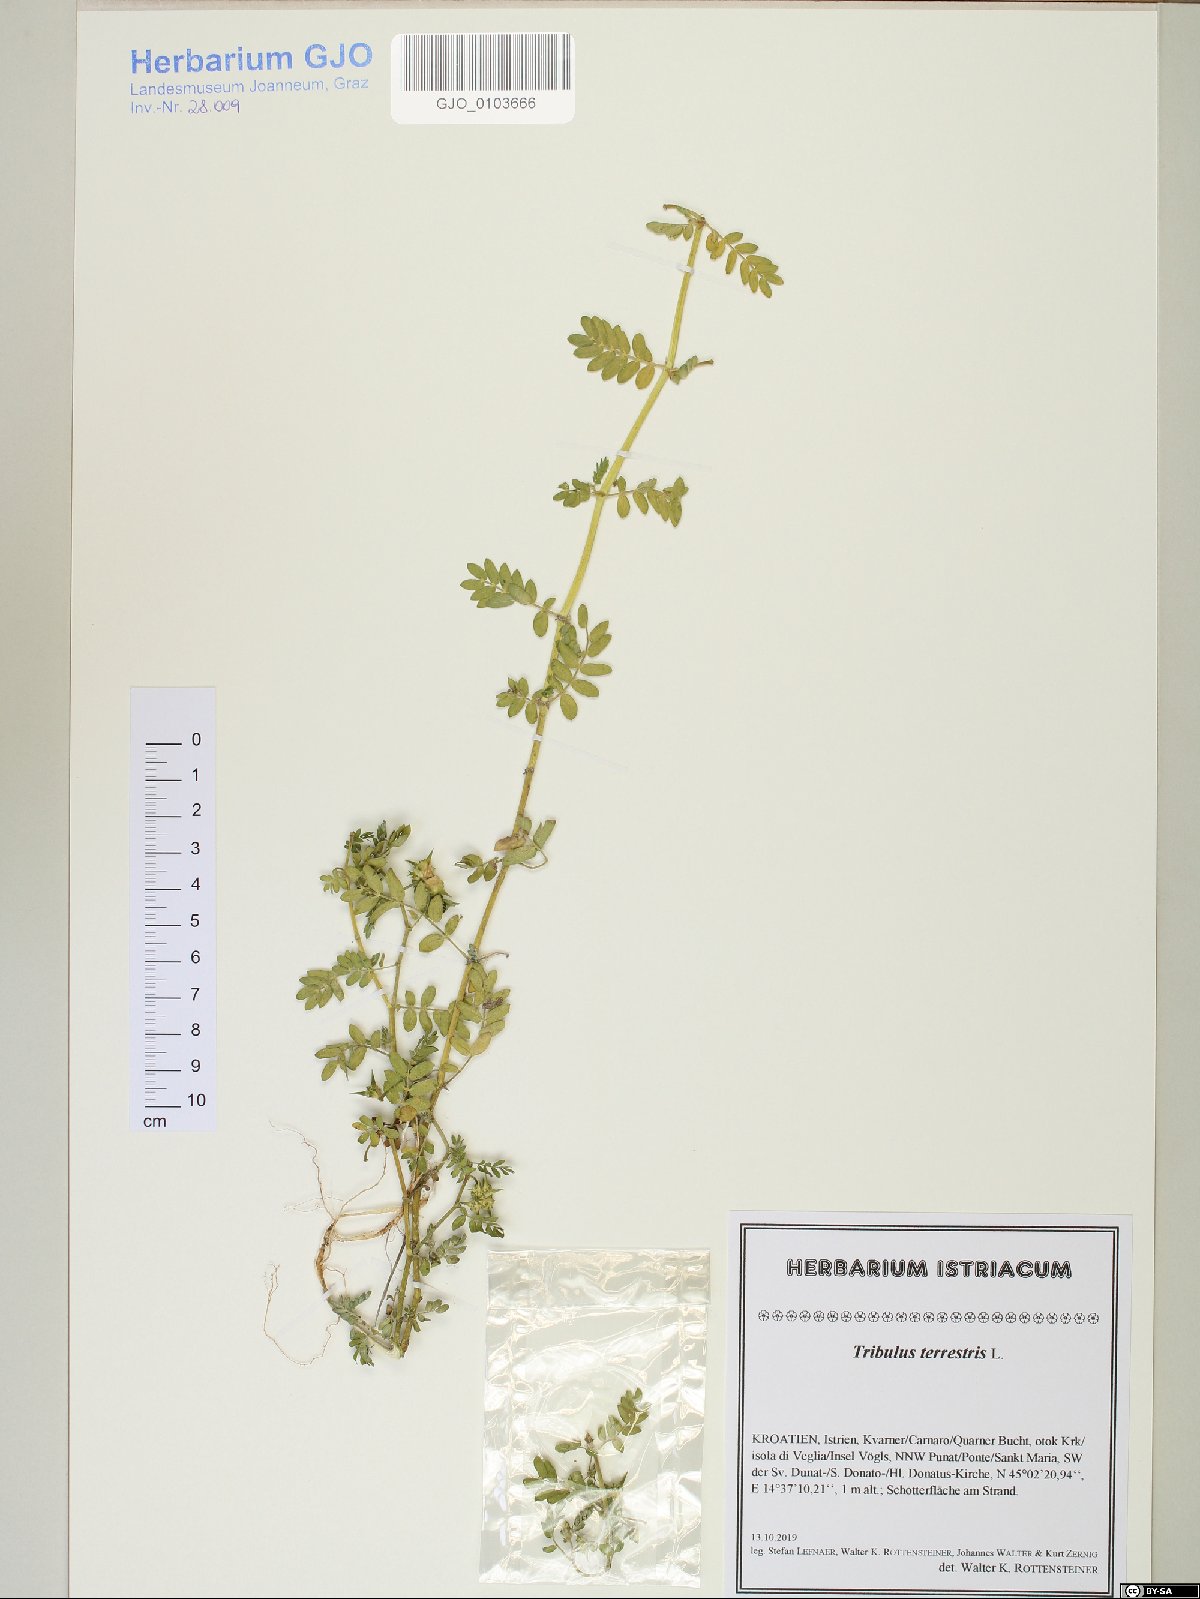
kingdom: Plantae
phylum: Tracheophyta
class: Magnoliopsida
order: Zygophyllales
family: Zygophyllaceae
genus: Tribulus
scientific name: Tribulus terrestris
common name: Puncturevine
